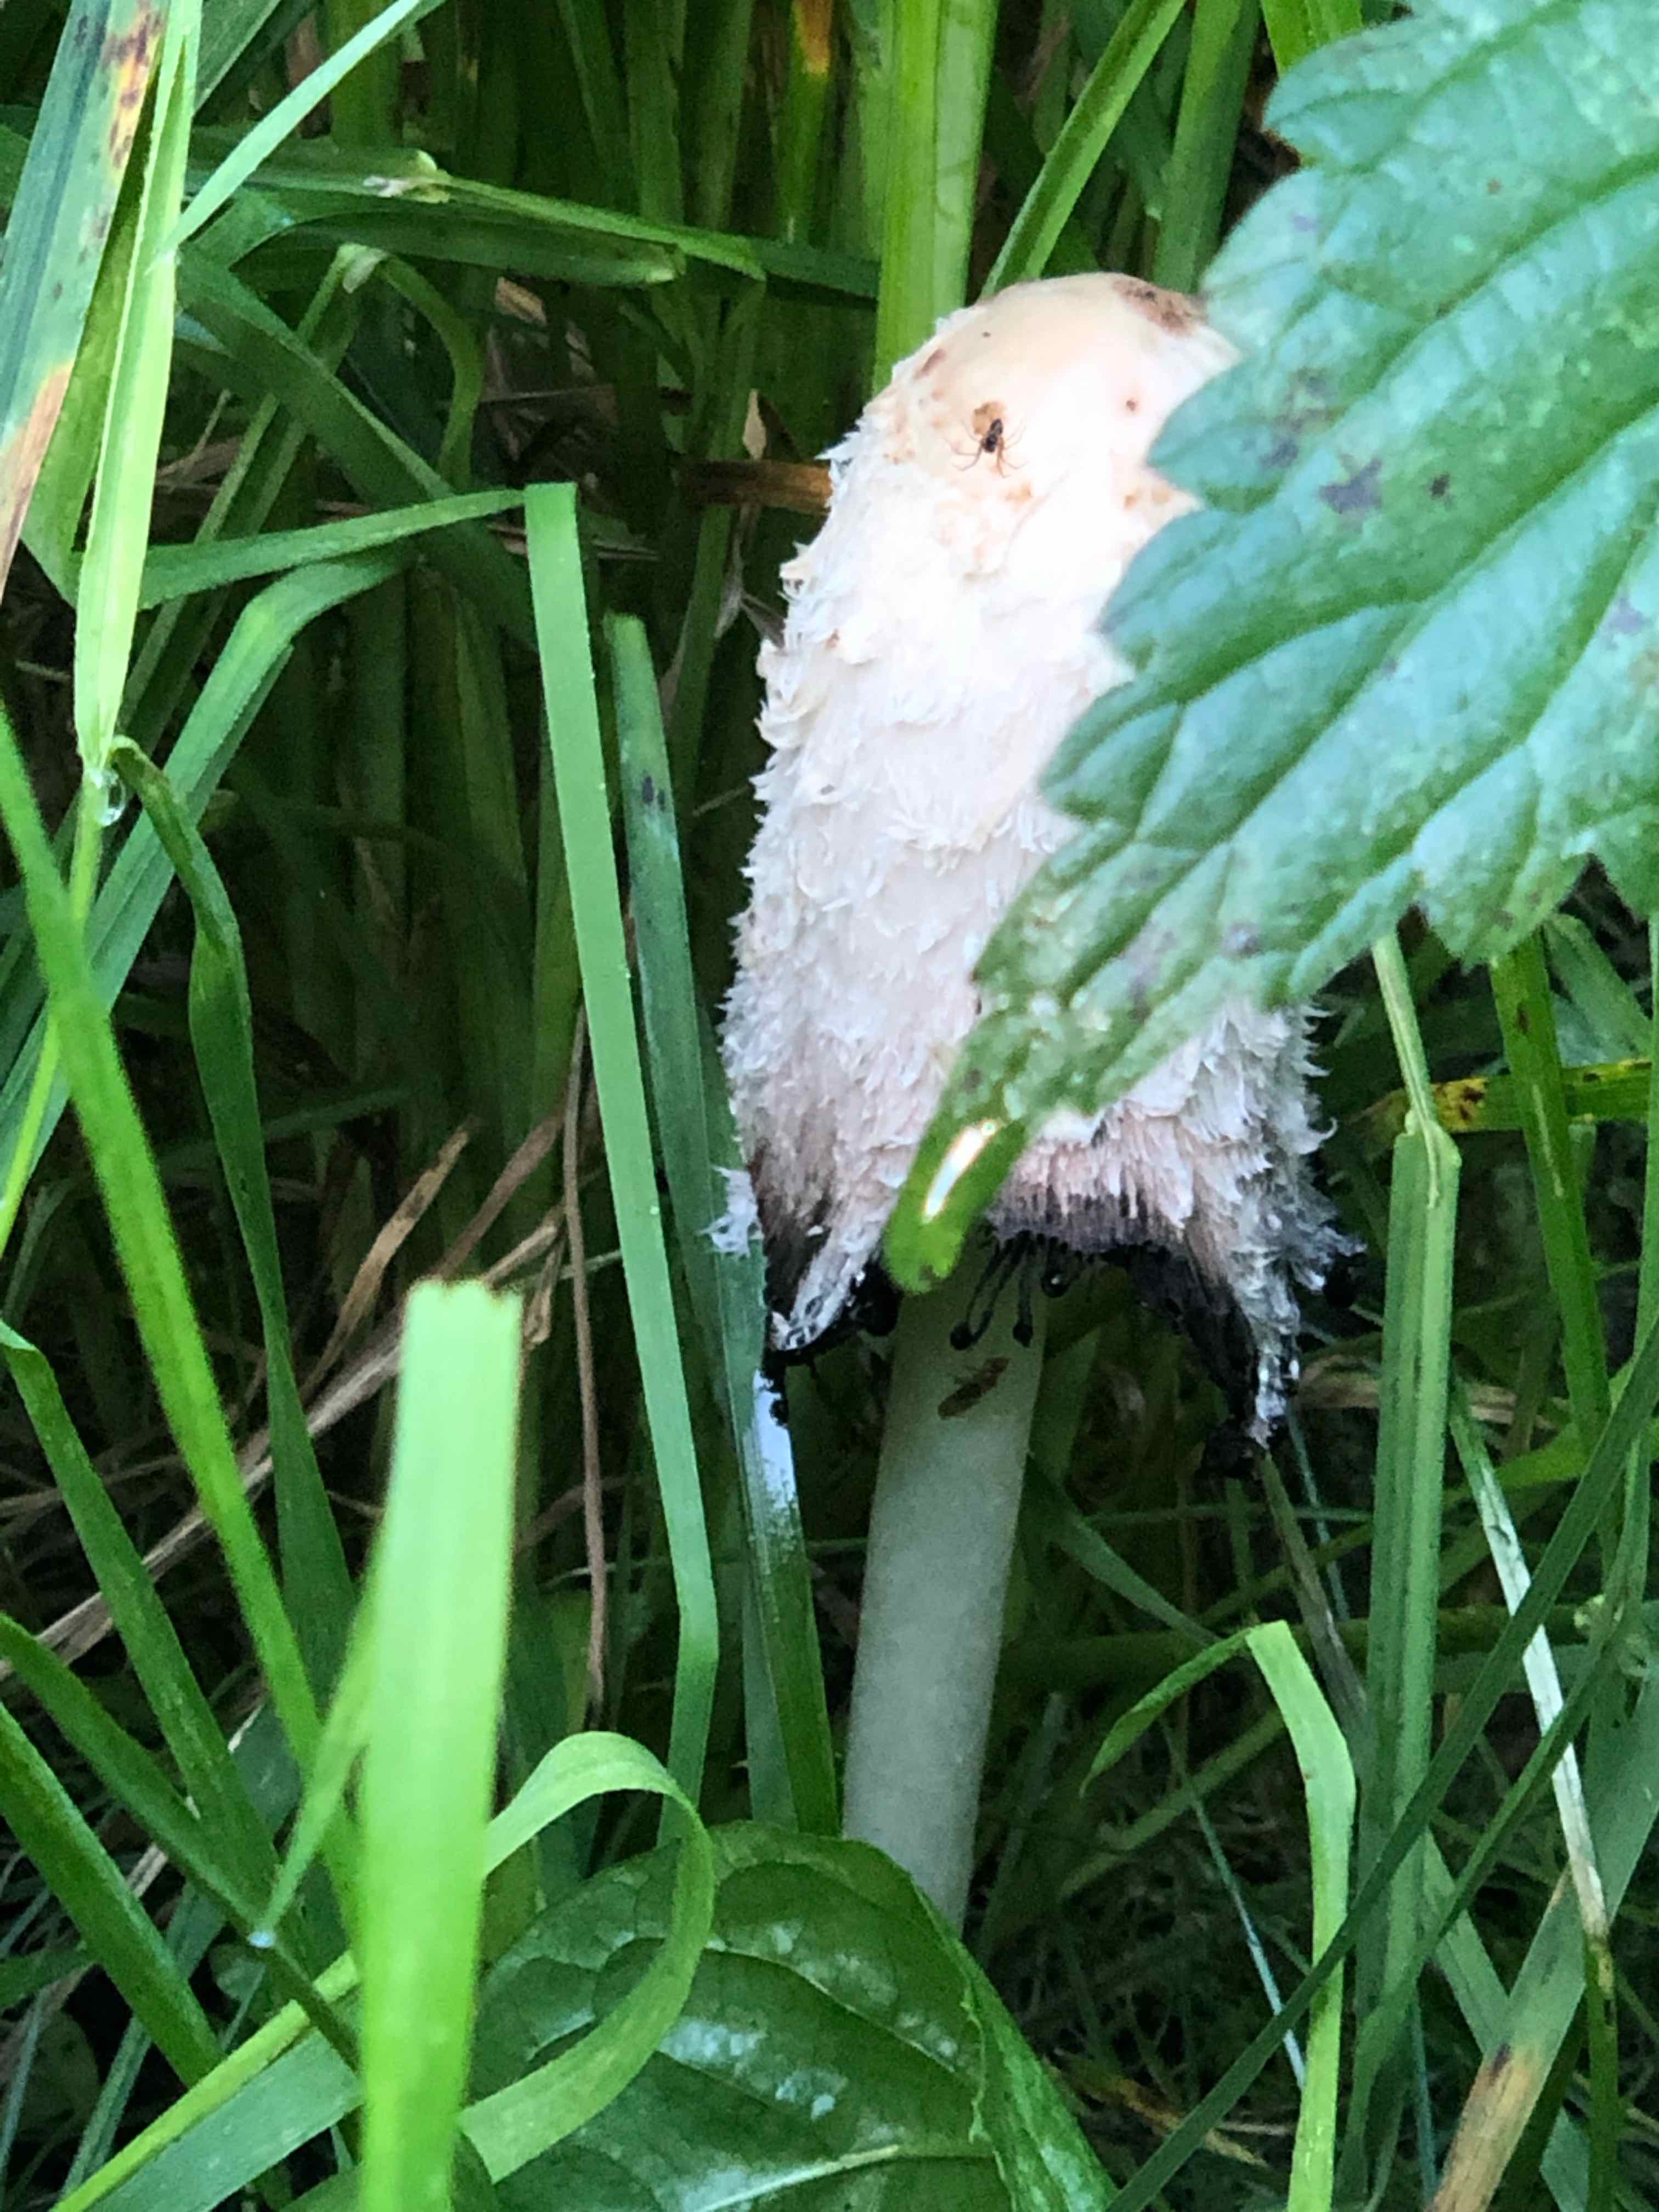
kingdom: Fungi
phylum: Basidiomycota
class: Agaricomycetes
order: Agaricales
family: Agaricaceae
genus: Coprinus
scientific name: Coprinus comatus
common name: stor parykhat
